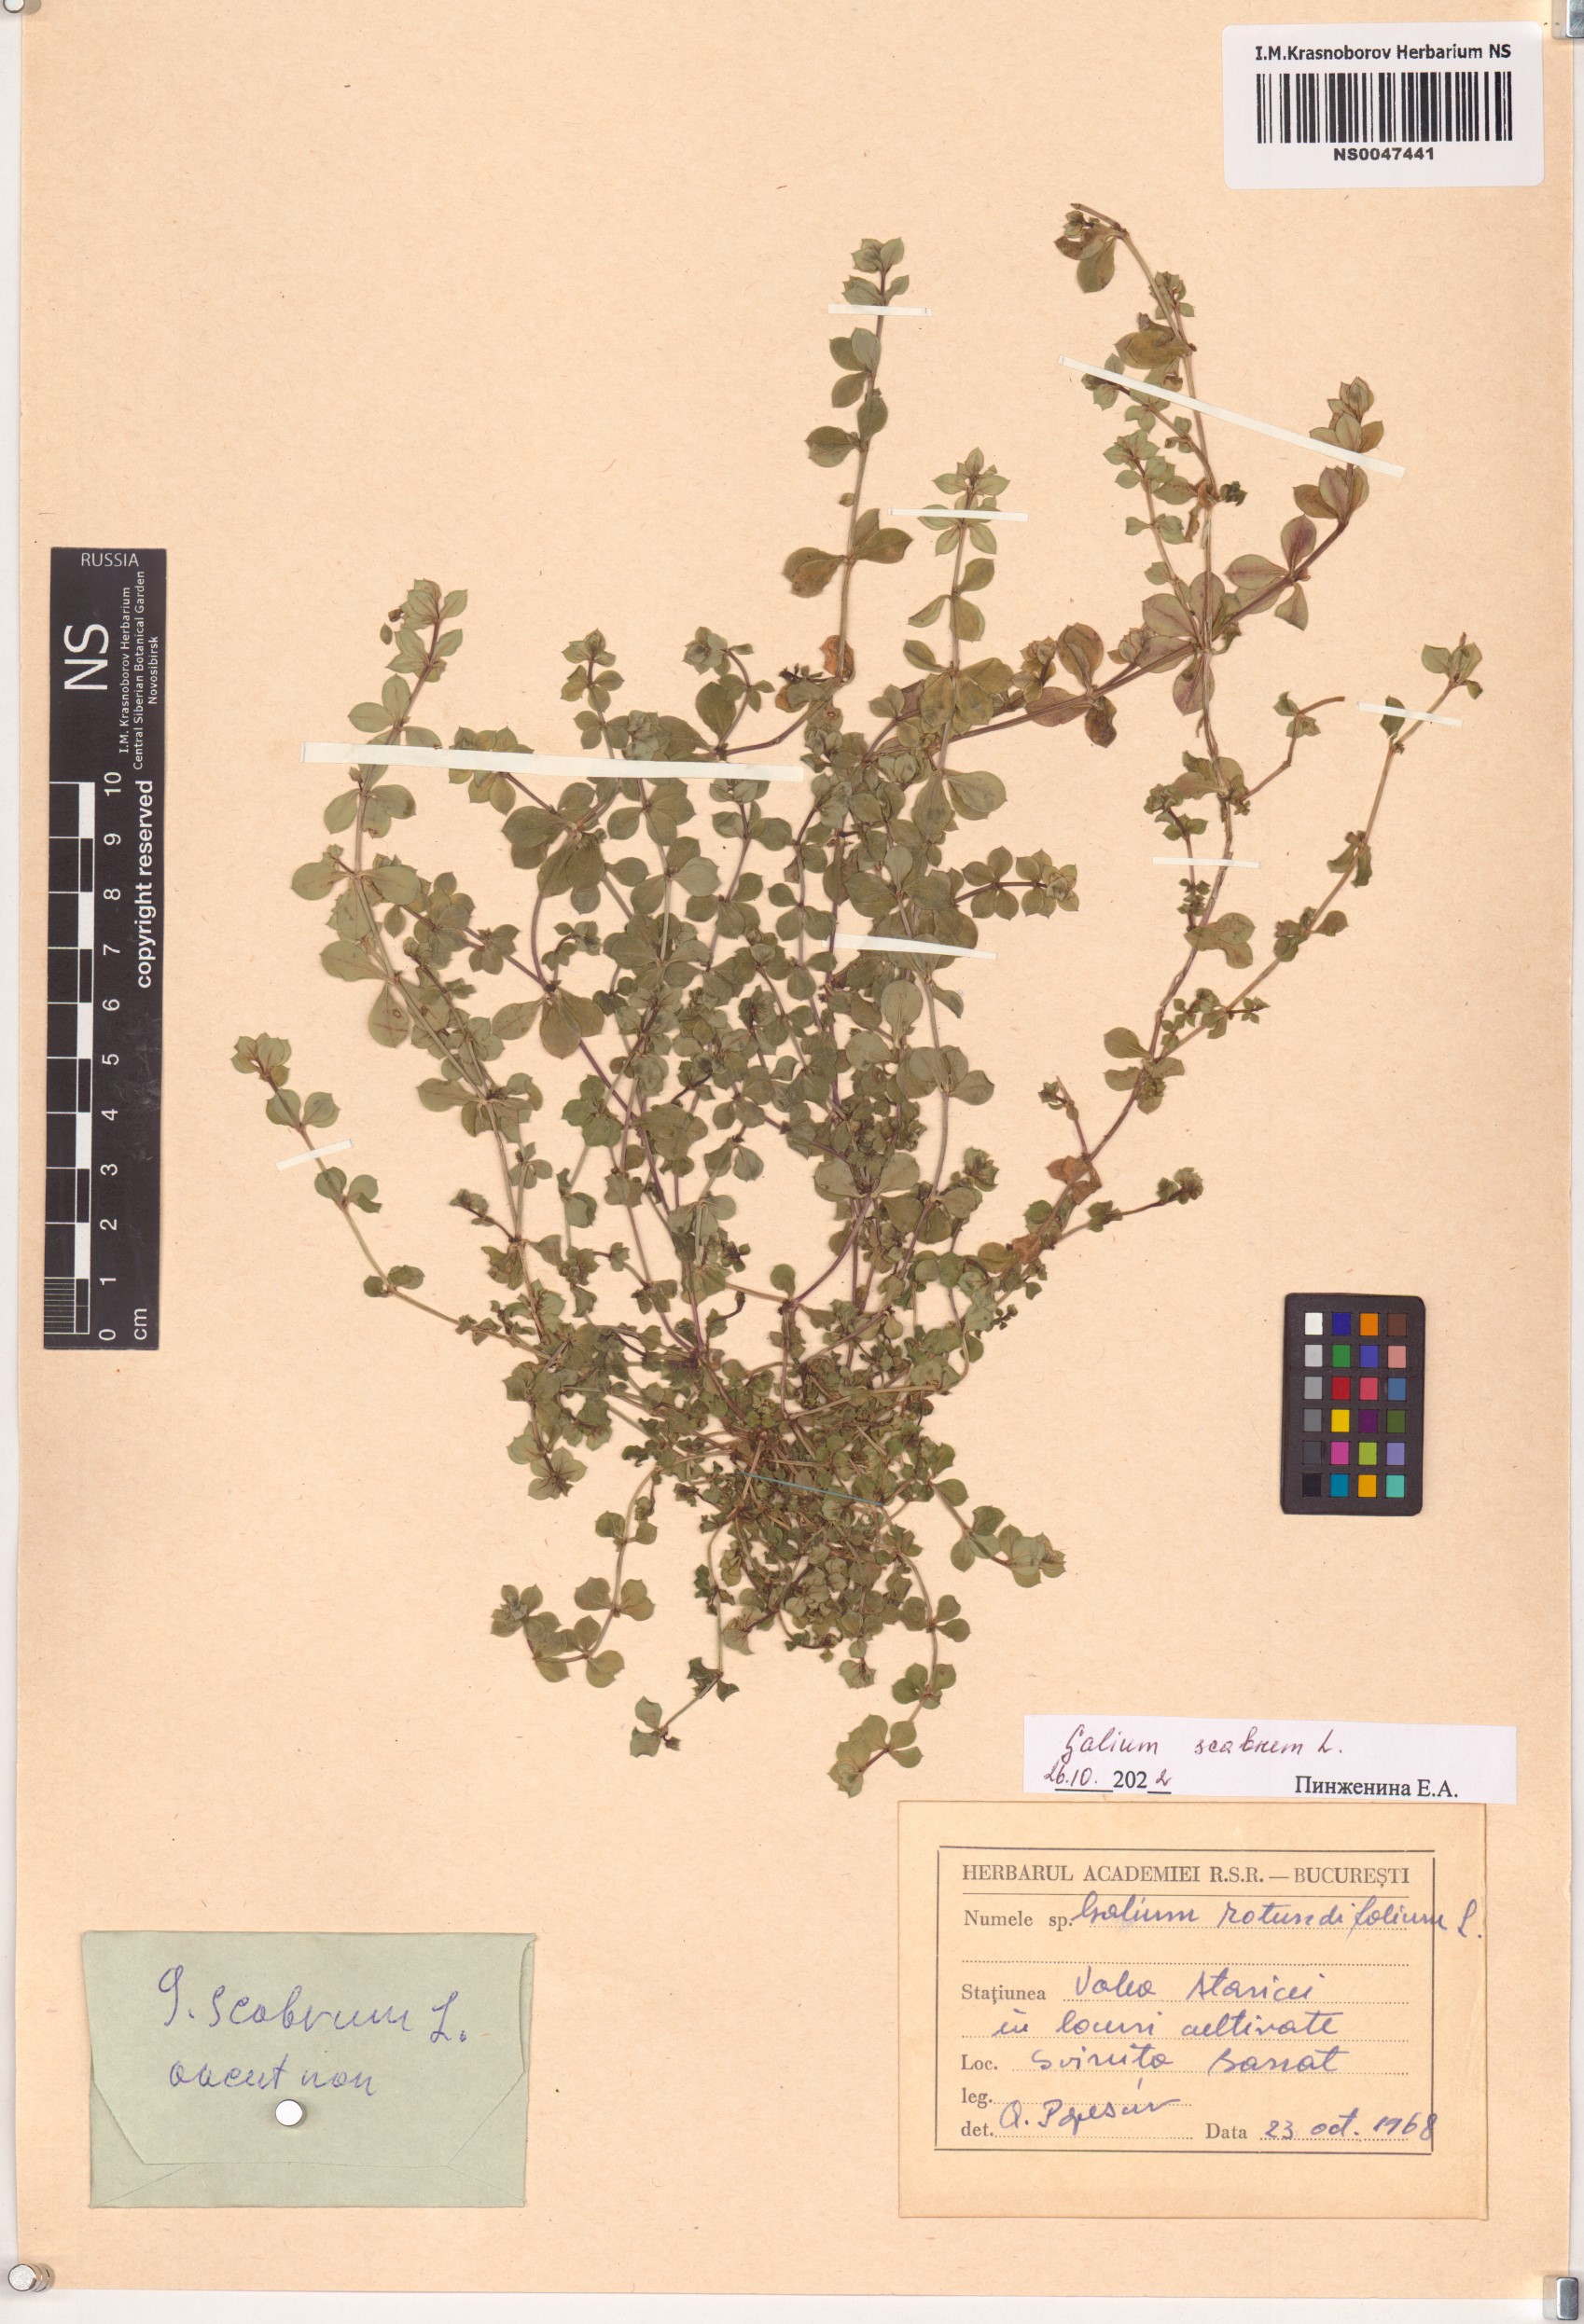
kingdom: Plantae
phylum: Tracheophyta
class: Magnoliopsida
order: Gentianales
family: Rubiaceae
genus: Galium
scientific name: Galium scabrum
